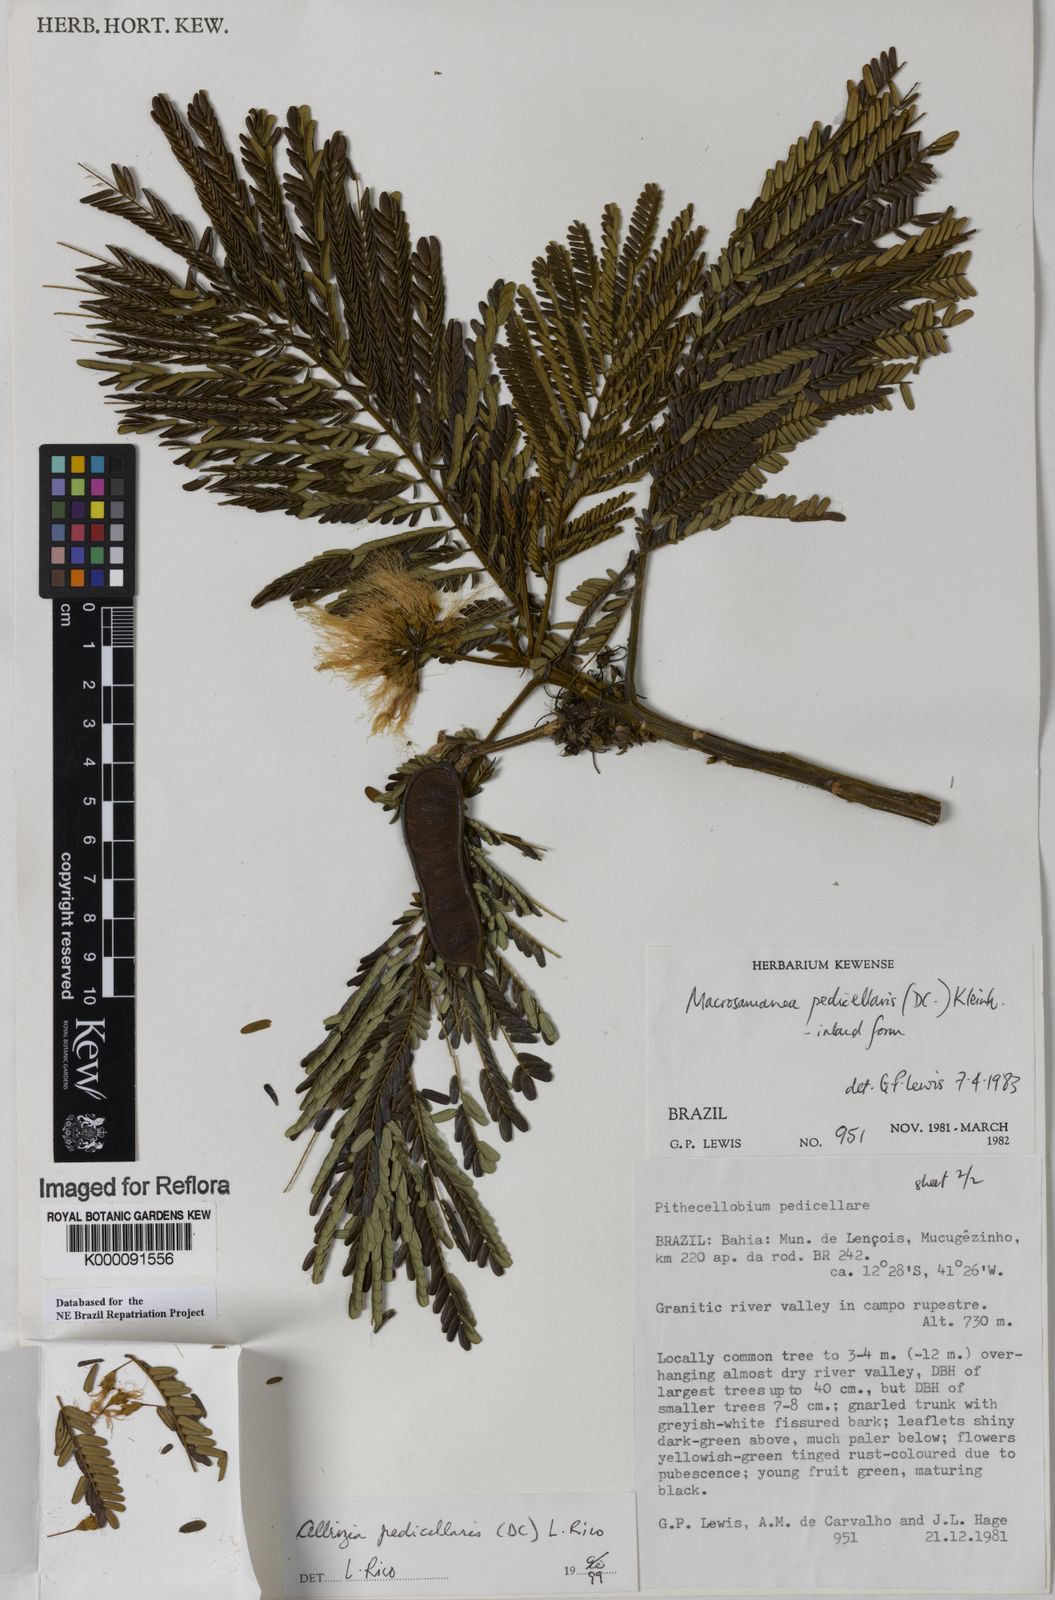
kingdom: Plantae
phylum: Tracheophyta
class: Magnoliopsida
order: Fabales
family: Fabaceae
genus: Balizia
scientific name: Balizia pedicellaris
